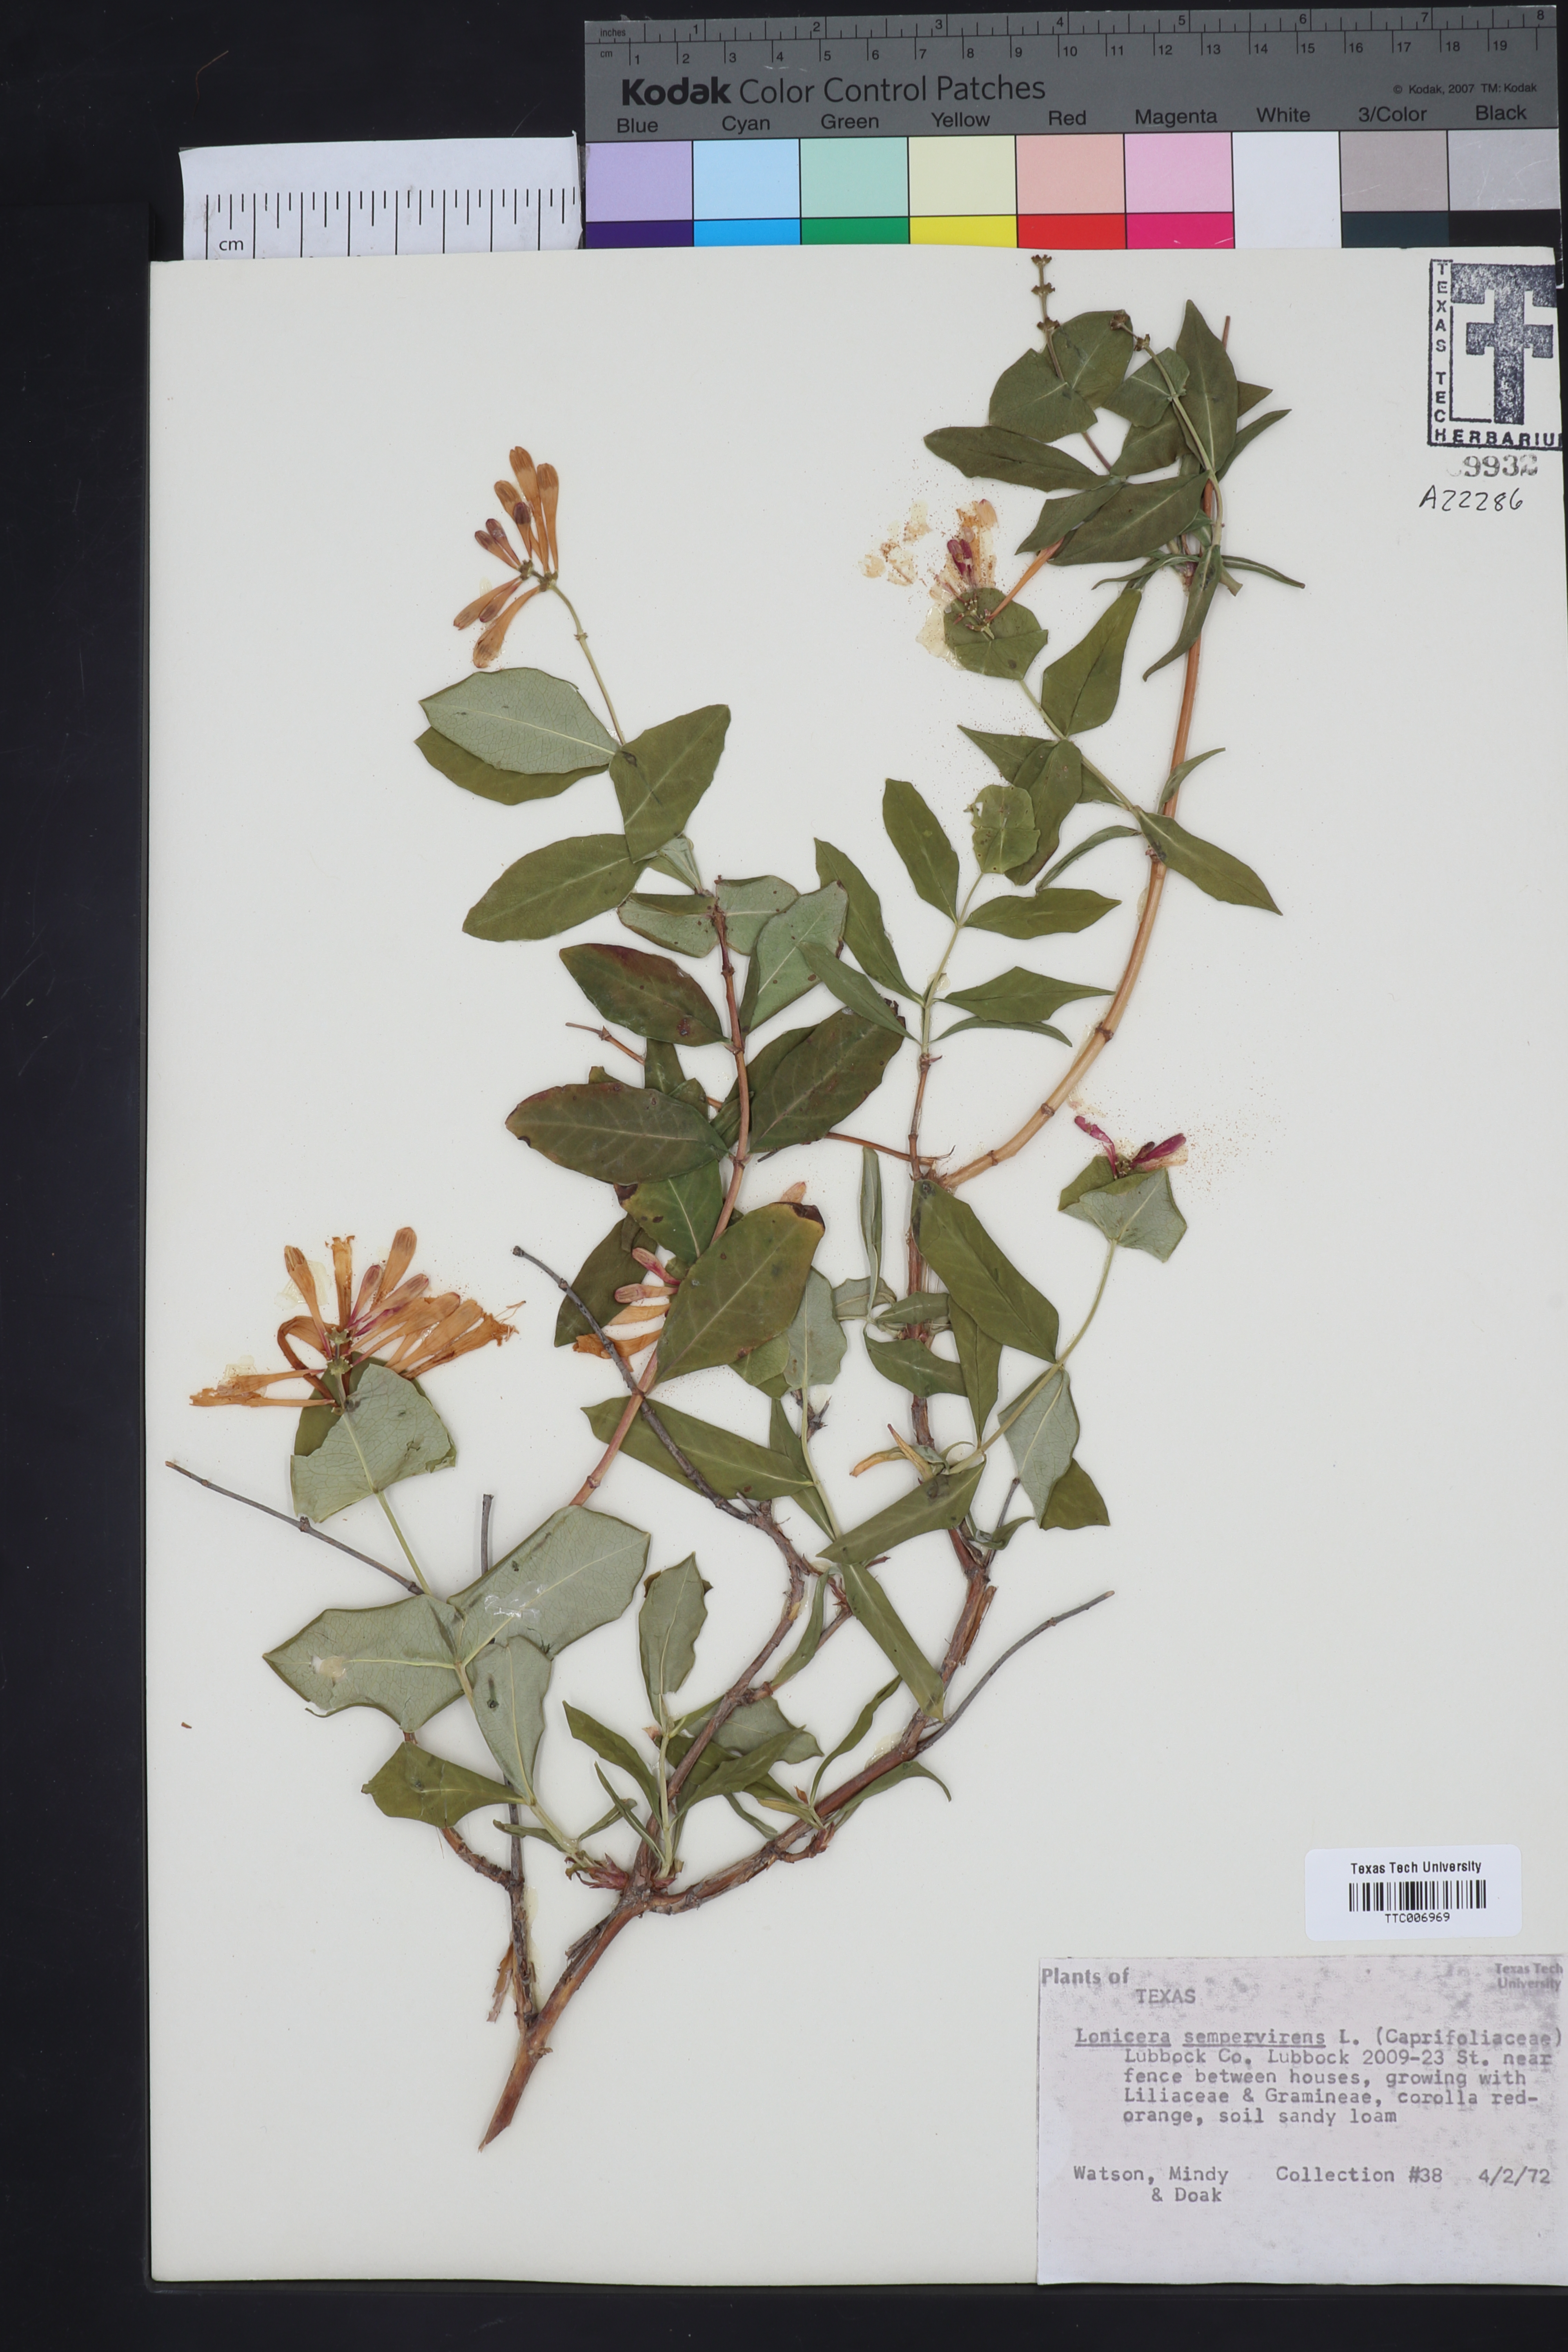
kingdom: Plantae
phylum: Tracheophyta
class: Magnoliopsida
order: Dipsacales
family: Caprifoliaceae
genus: Lonicera
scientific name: Lonicera sempervirens
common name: Coral honeysuckle
